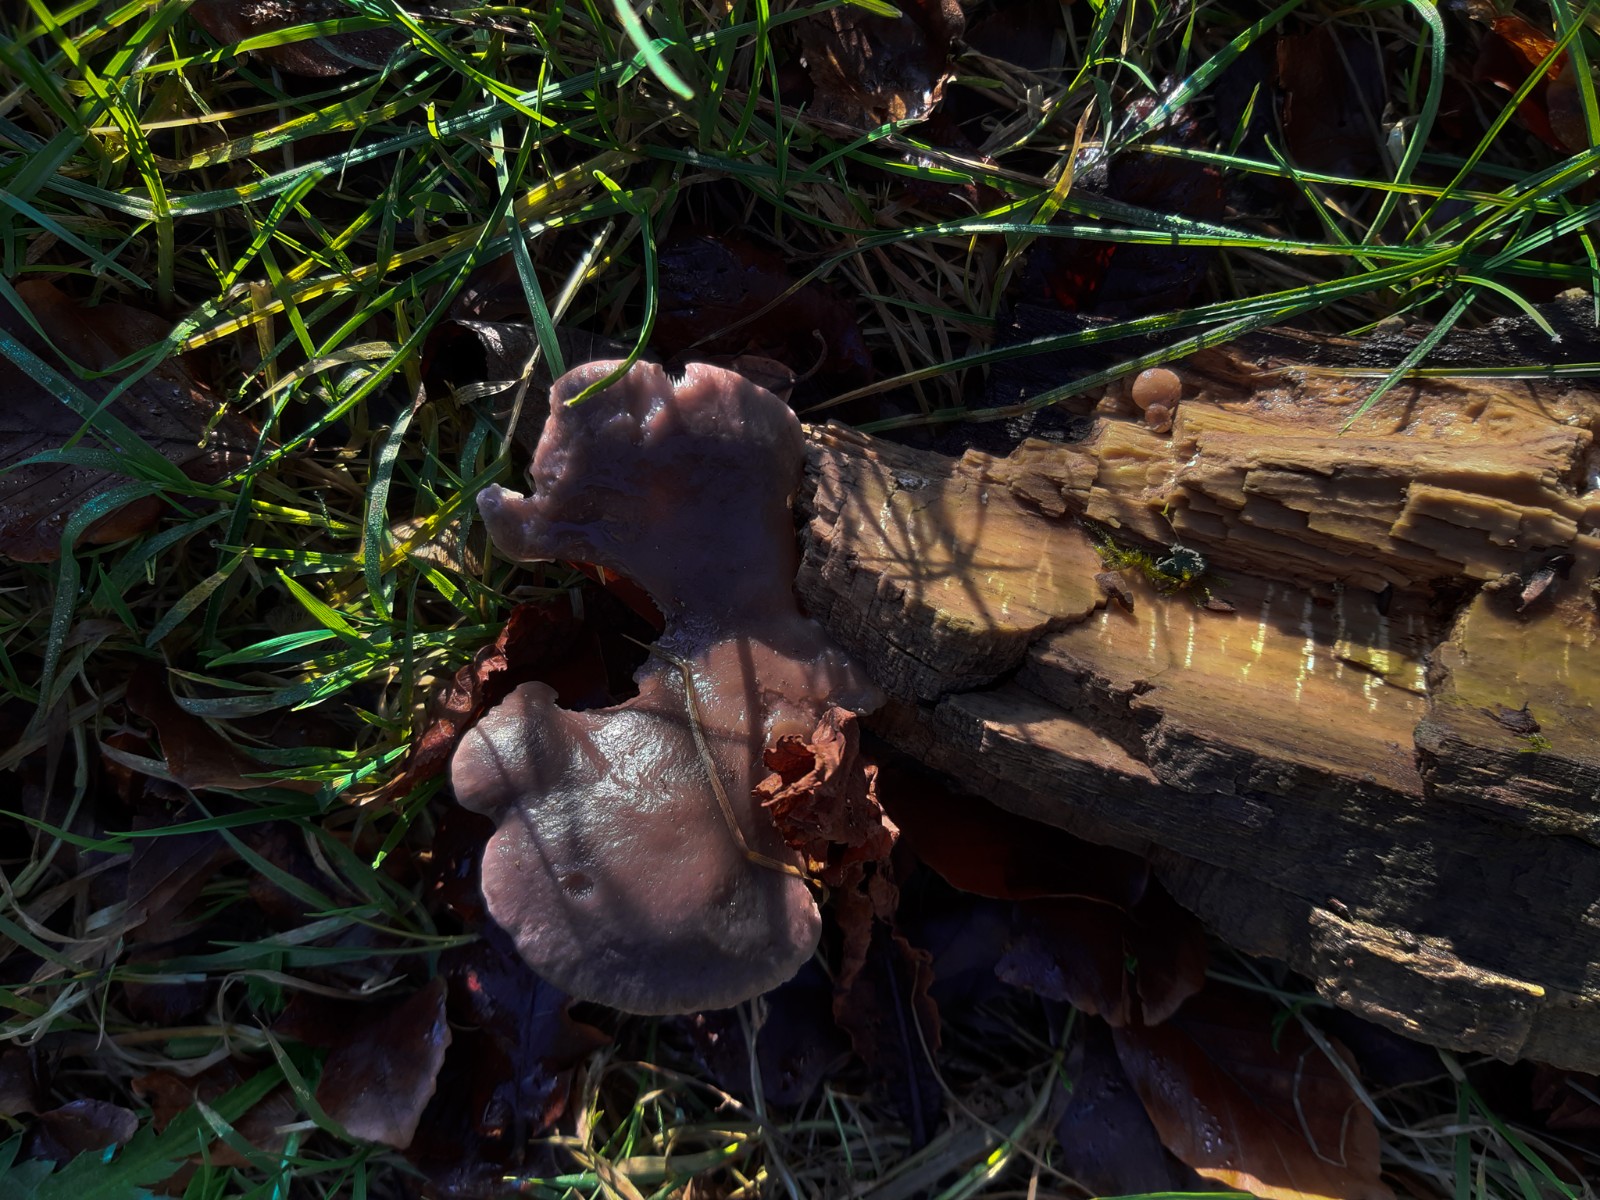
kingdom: Fungi
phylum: Basidiomycota
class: Agaricomycetes
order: Agaricales
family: Pleurotaceae
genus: Pleurotus
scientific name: Pleurotus ostreatus
